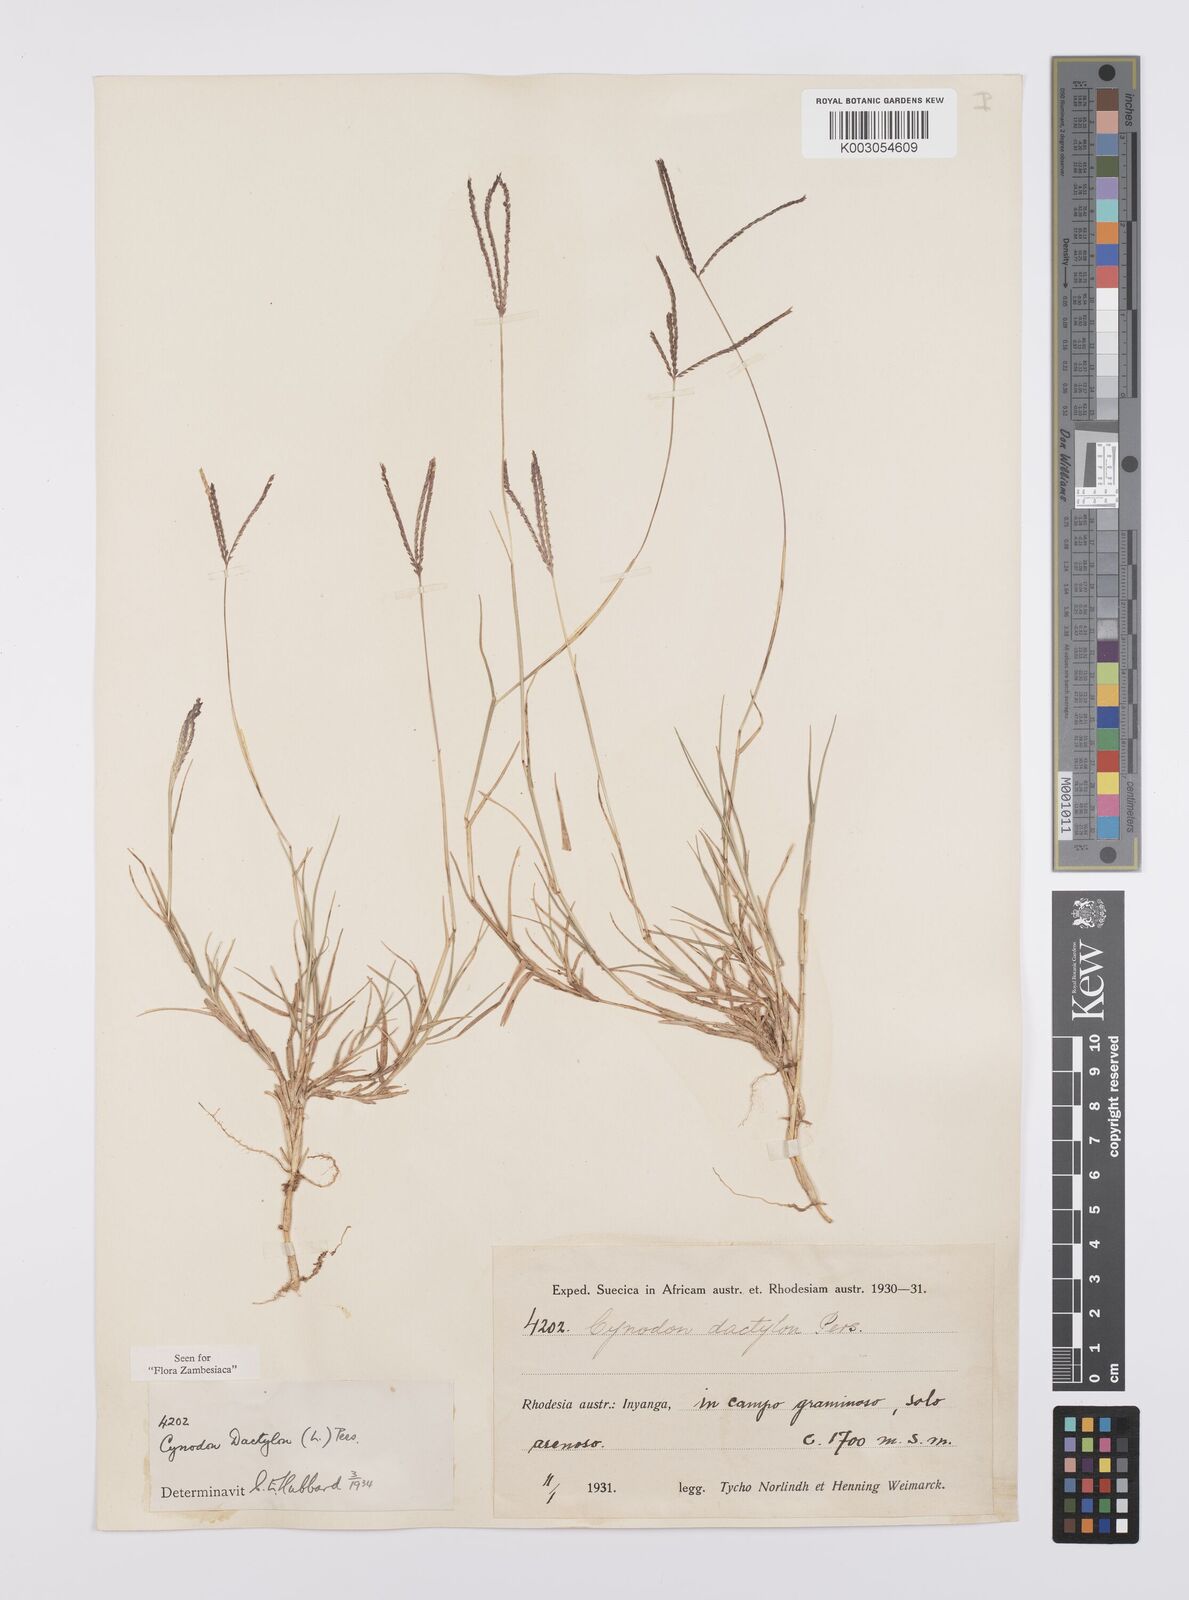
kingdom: Plantae
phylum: Tracheophyta
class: Liliopsida
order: Poales
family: Poaceae
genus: Cynodon
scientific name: Cynodon dactylon
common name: Bermuda grass
